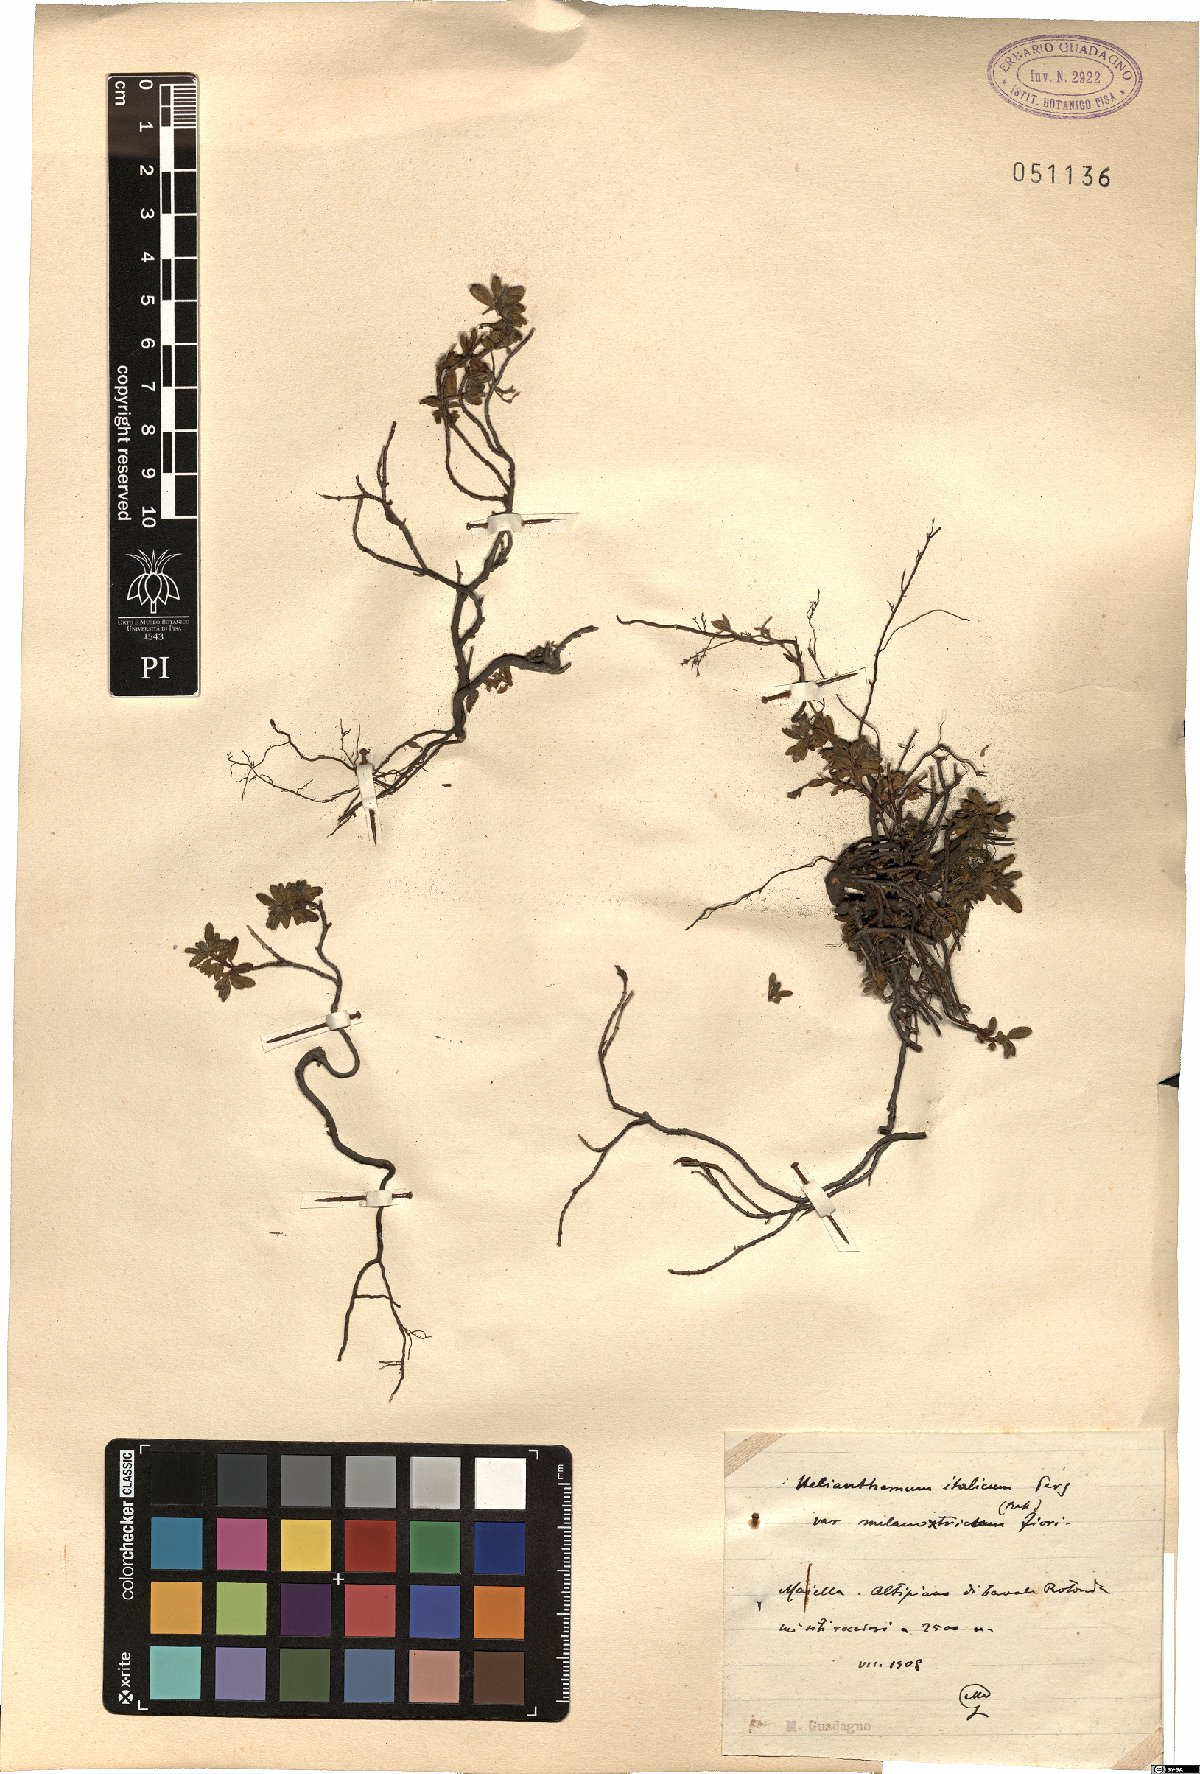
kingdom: Plantae
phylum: Tracheophyta
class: Magnoliopsida
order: Malvales
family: Cistaceae
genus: Helianthemum
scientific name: Helianthemum italicum
